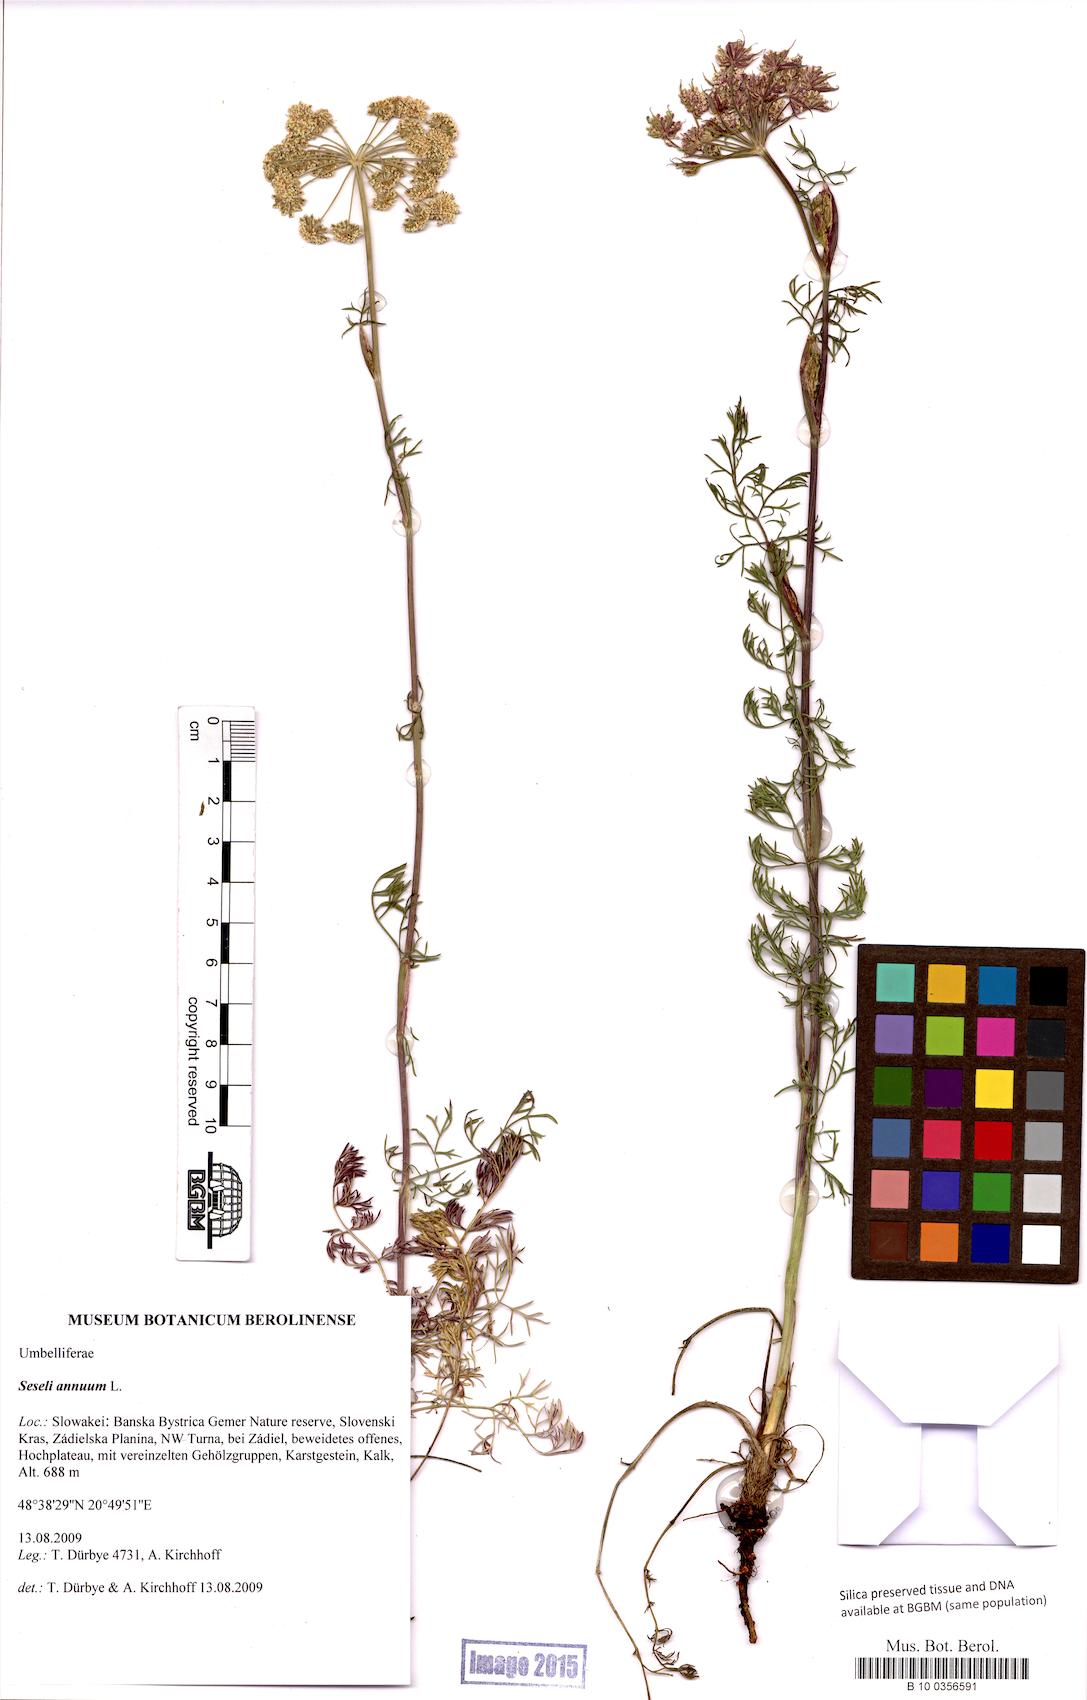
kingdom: Plantae
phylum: Tracheophyta
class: Magnoliopsida
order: Apiales
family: Apiaceae
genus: Seseli
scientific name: Seseli annuum
